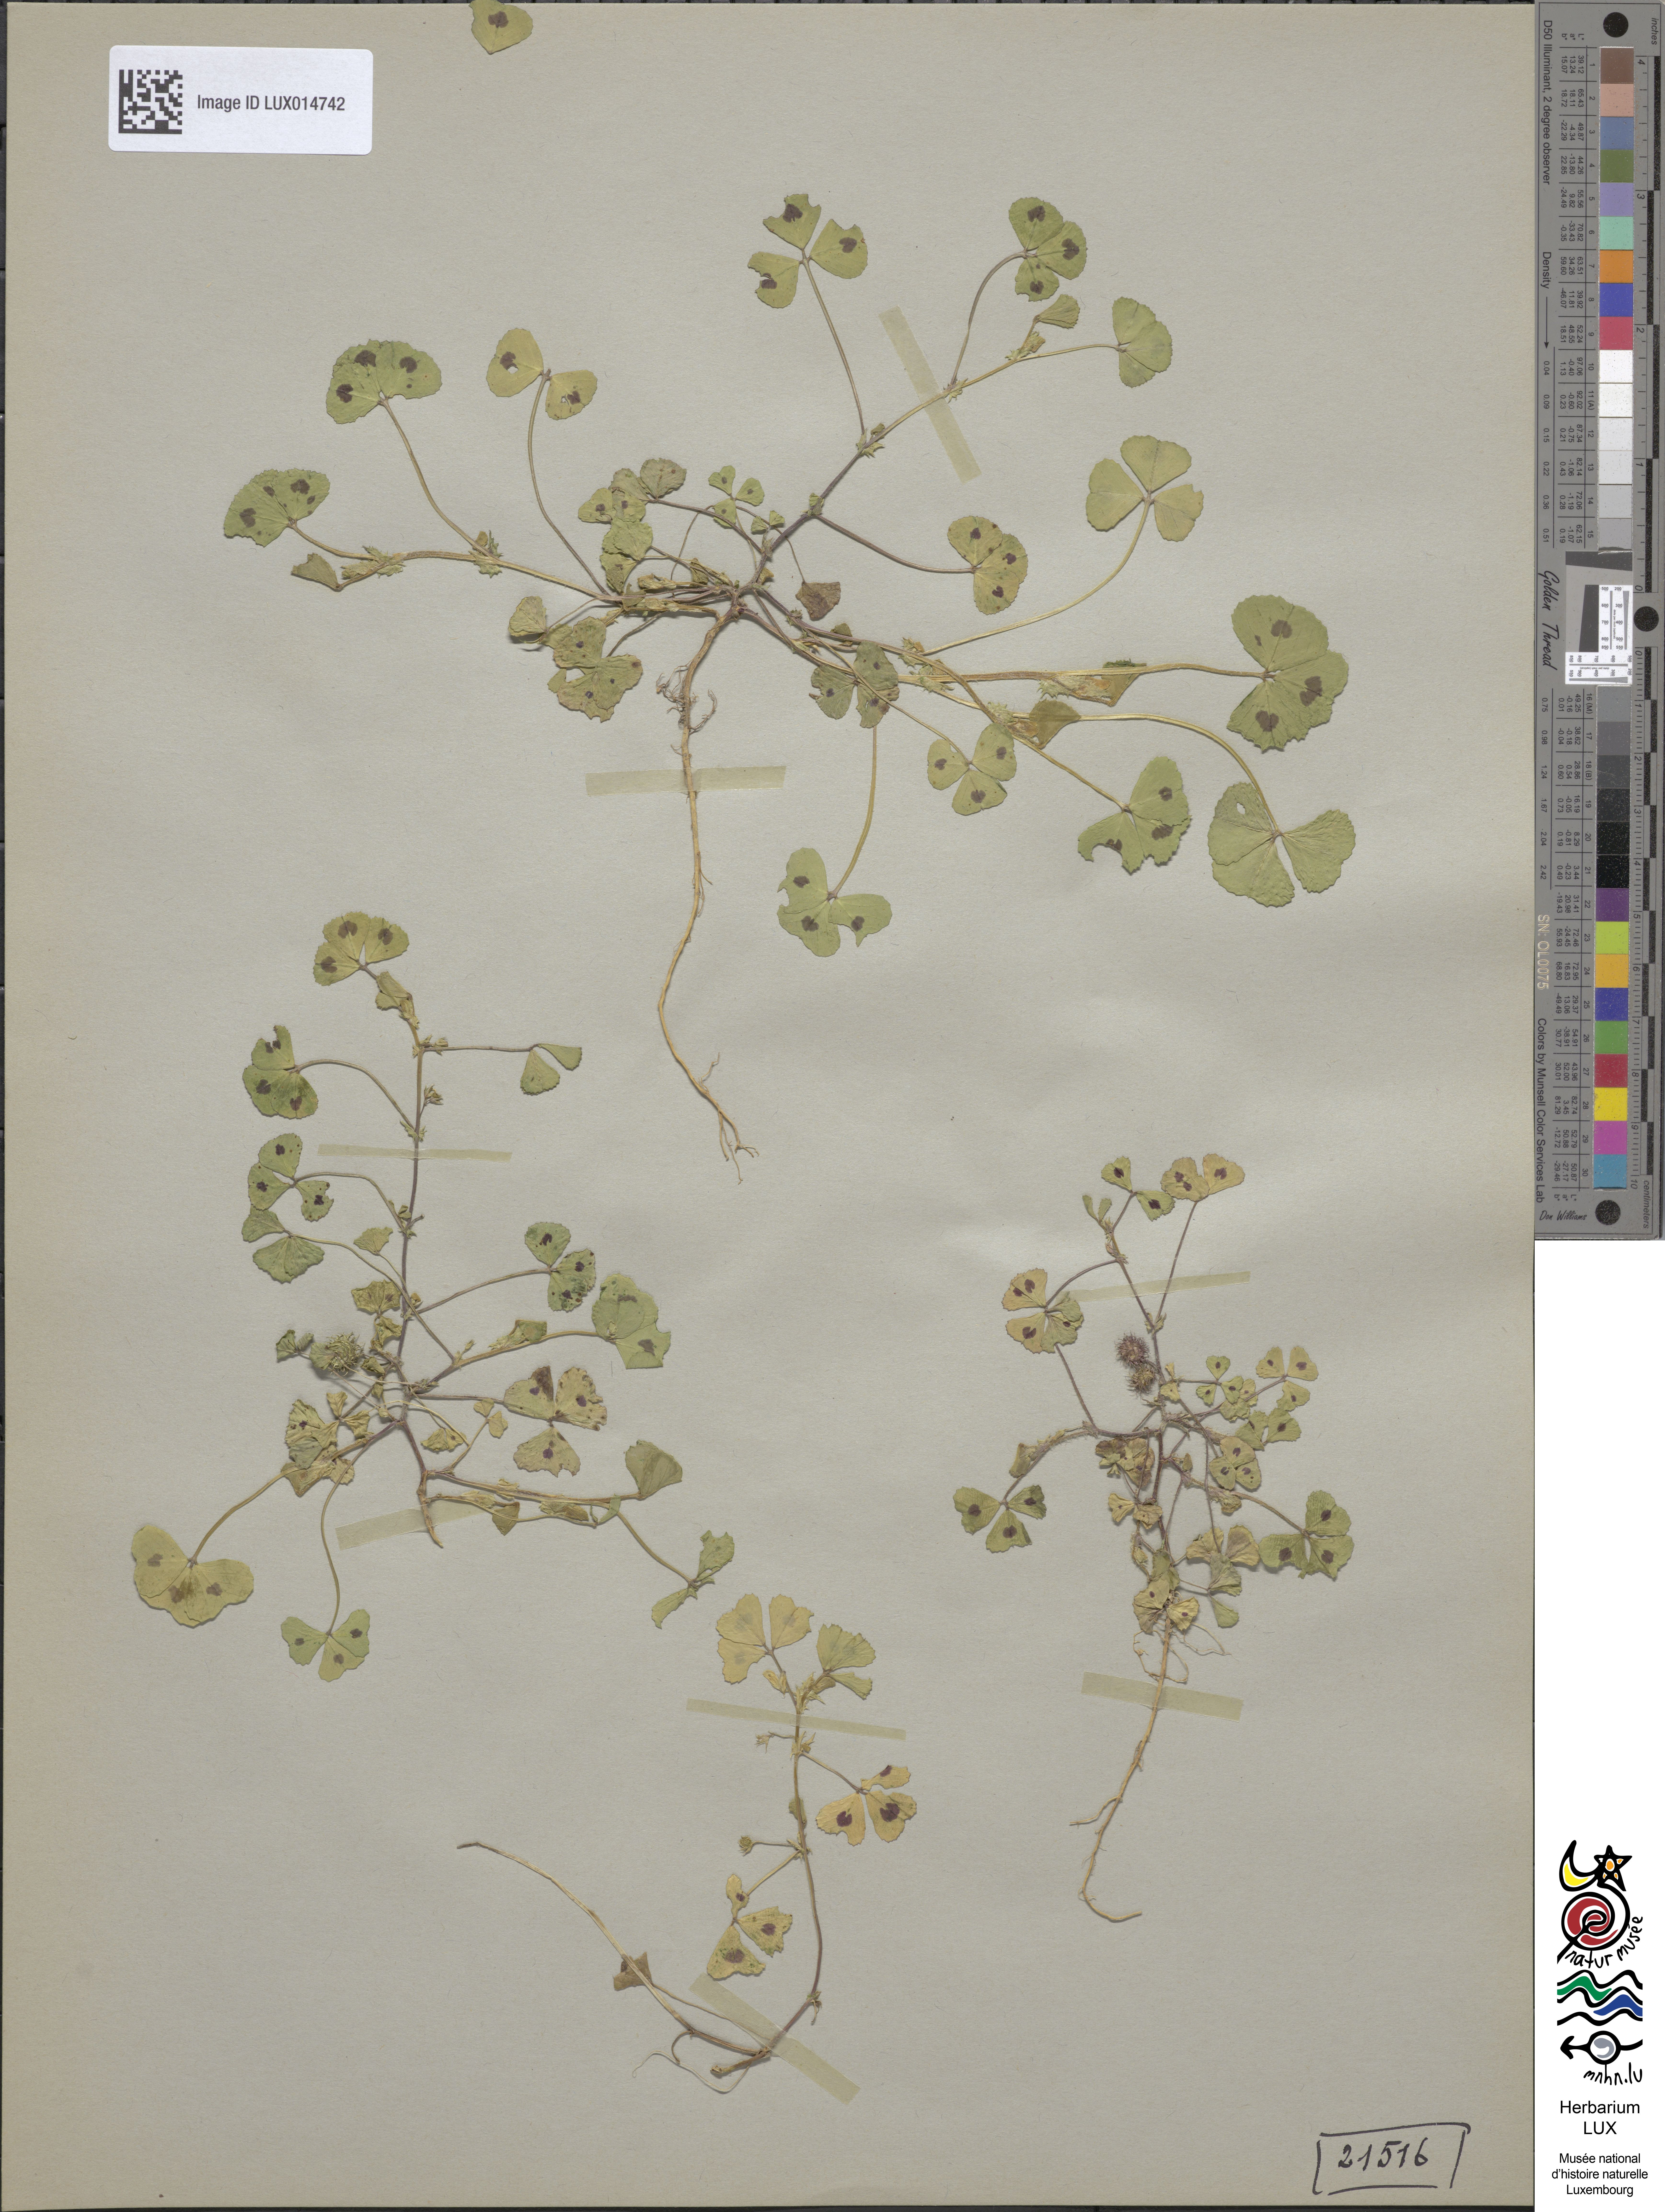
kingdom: Plantae
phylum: Tracheophyta
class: Magnoliopsida
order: Fabales
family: Fabaceae
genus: Medicago
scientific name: Medicago arabica
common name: Spotted medick
